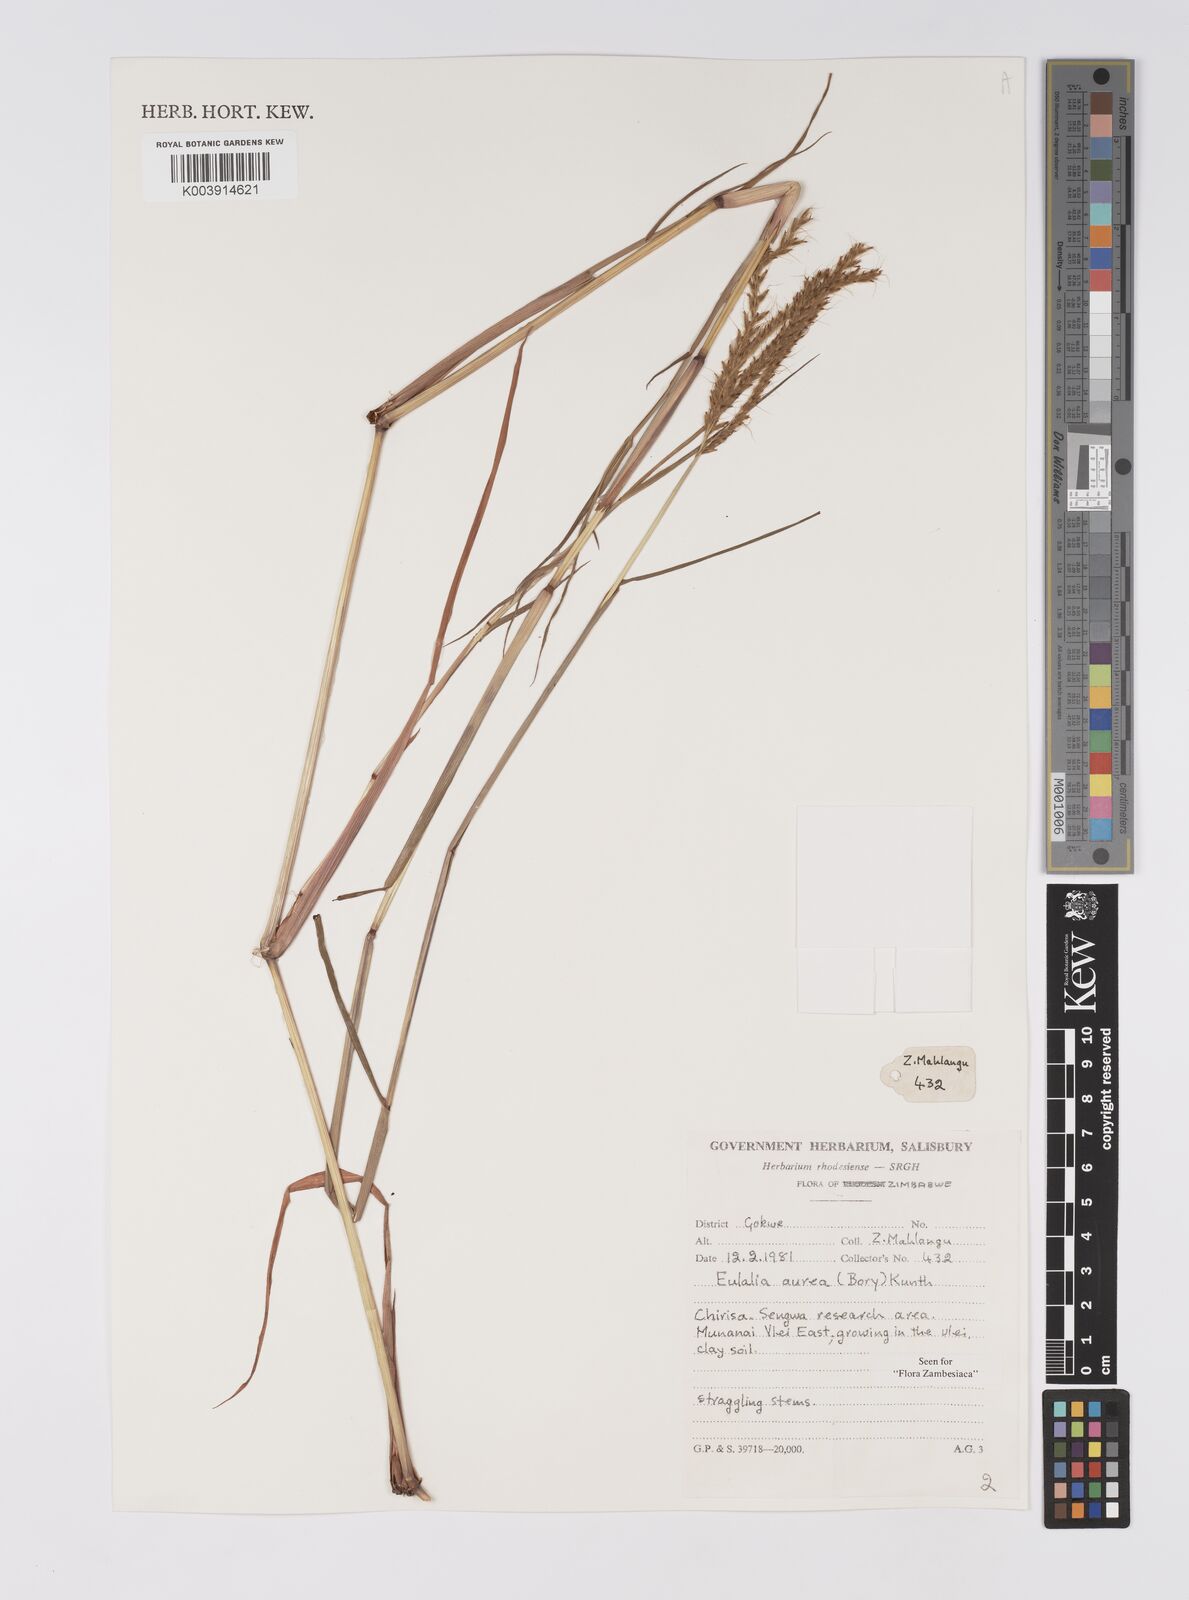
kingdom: Plantae
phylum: Tracheophyta
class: Liliopsida
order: Poales
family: Poaceae
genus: Eulalia
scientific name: Eulalia aurea
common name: Silky browntop
